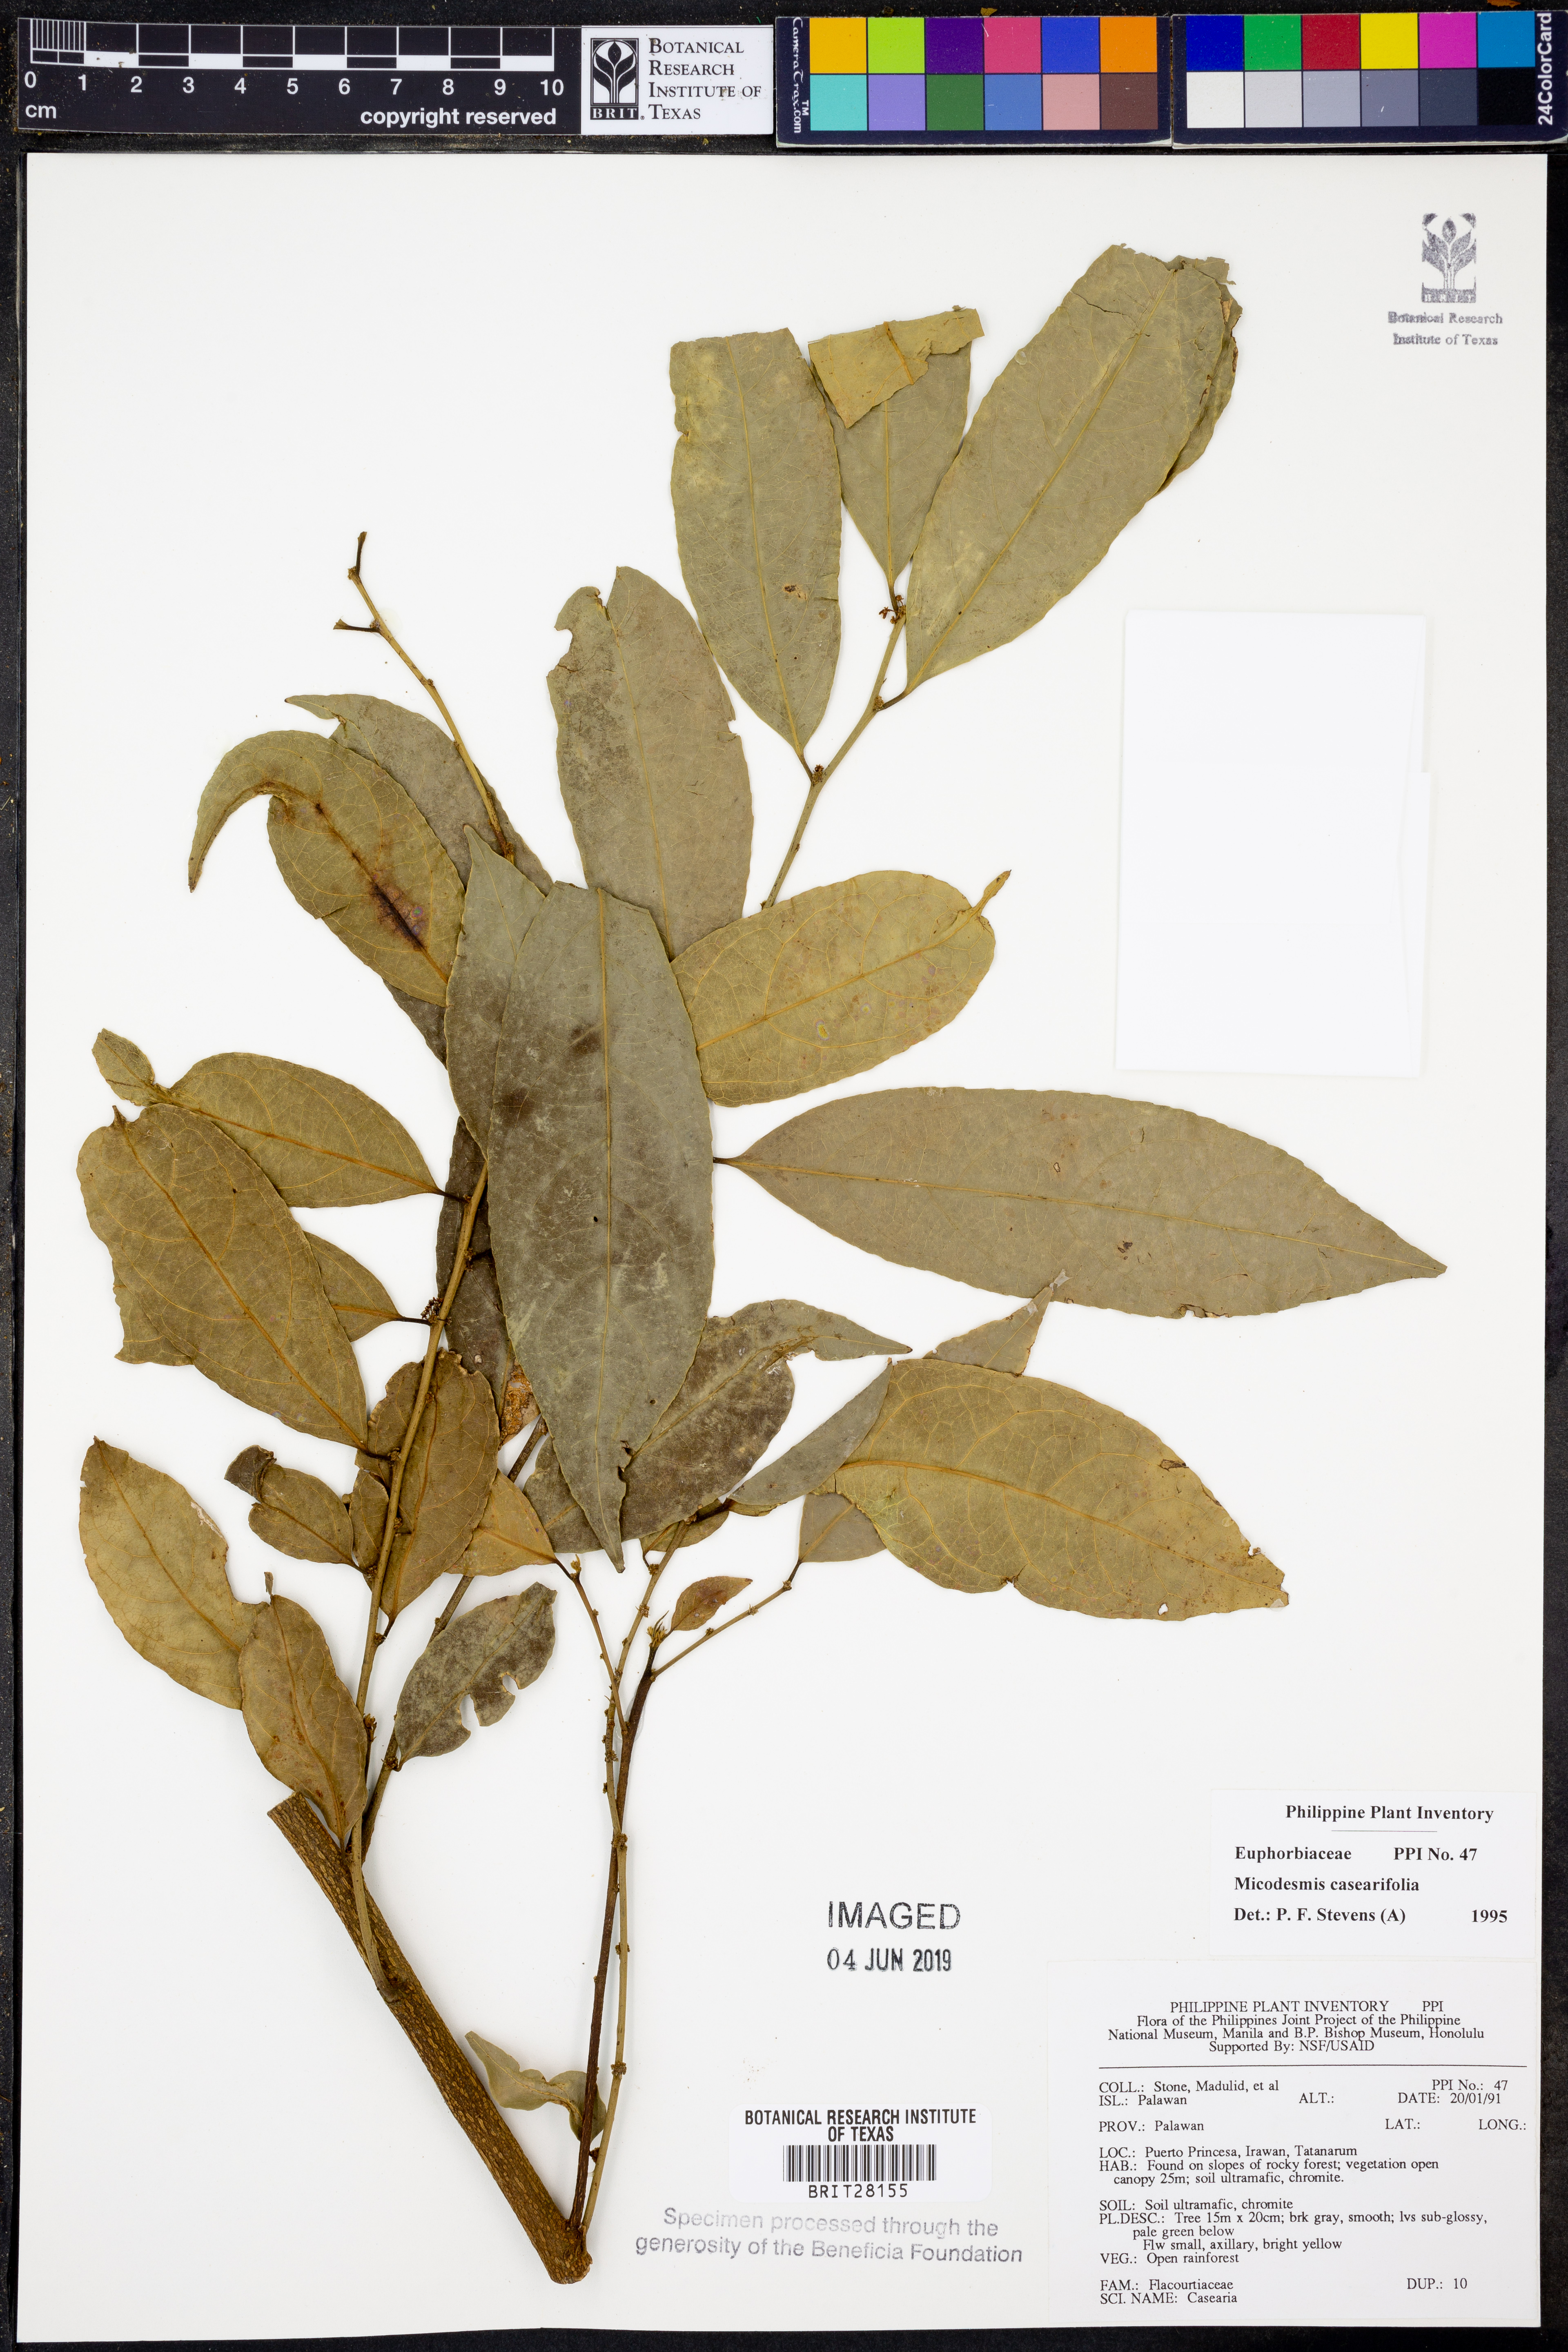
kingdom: Plantae
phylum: Tracheophyta
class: Magnoliopsida
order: Malpighiales
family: Pandaceae
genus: Microdesmis
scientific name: Microdesmis caseariifolia
